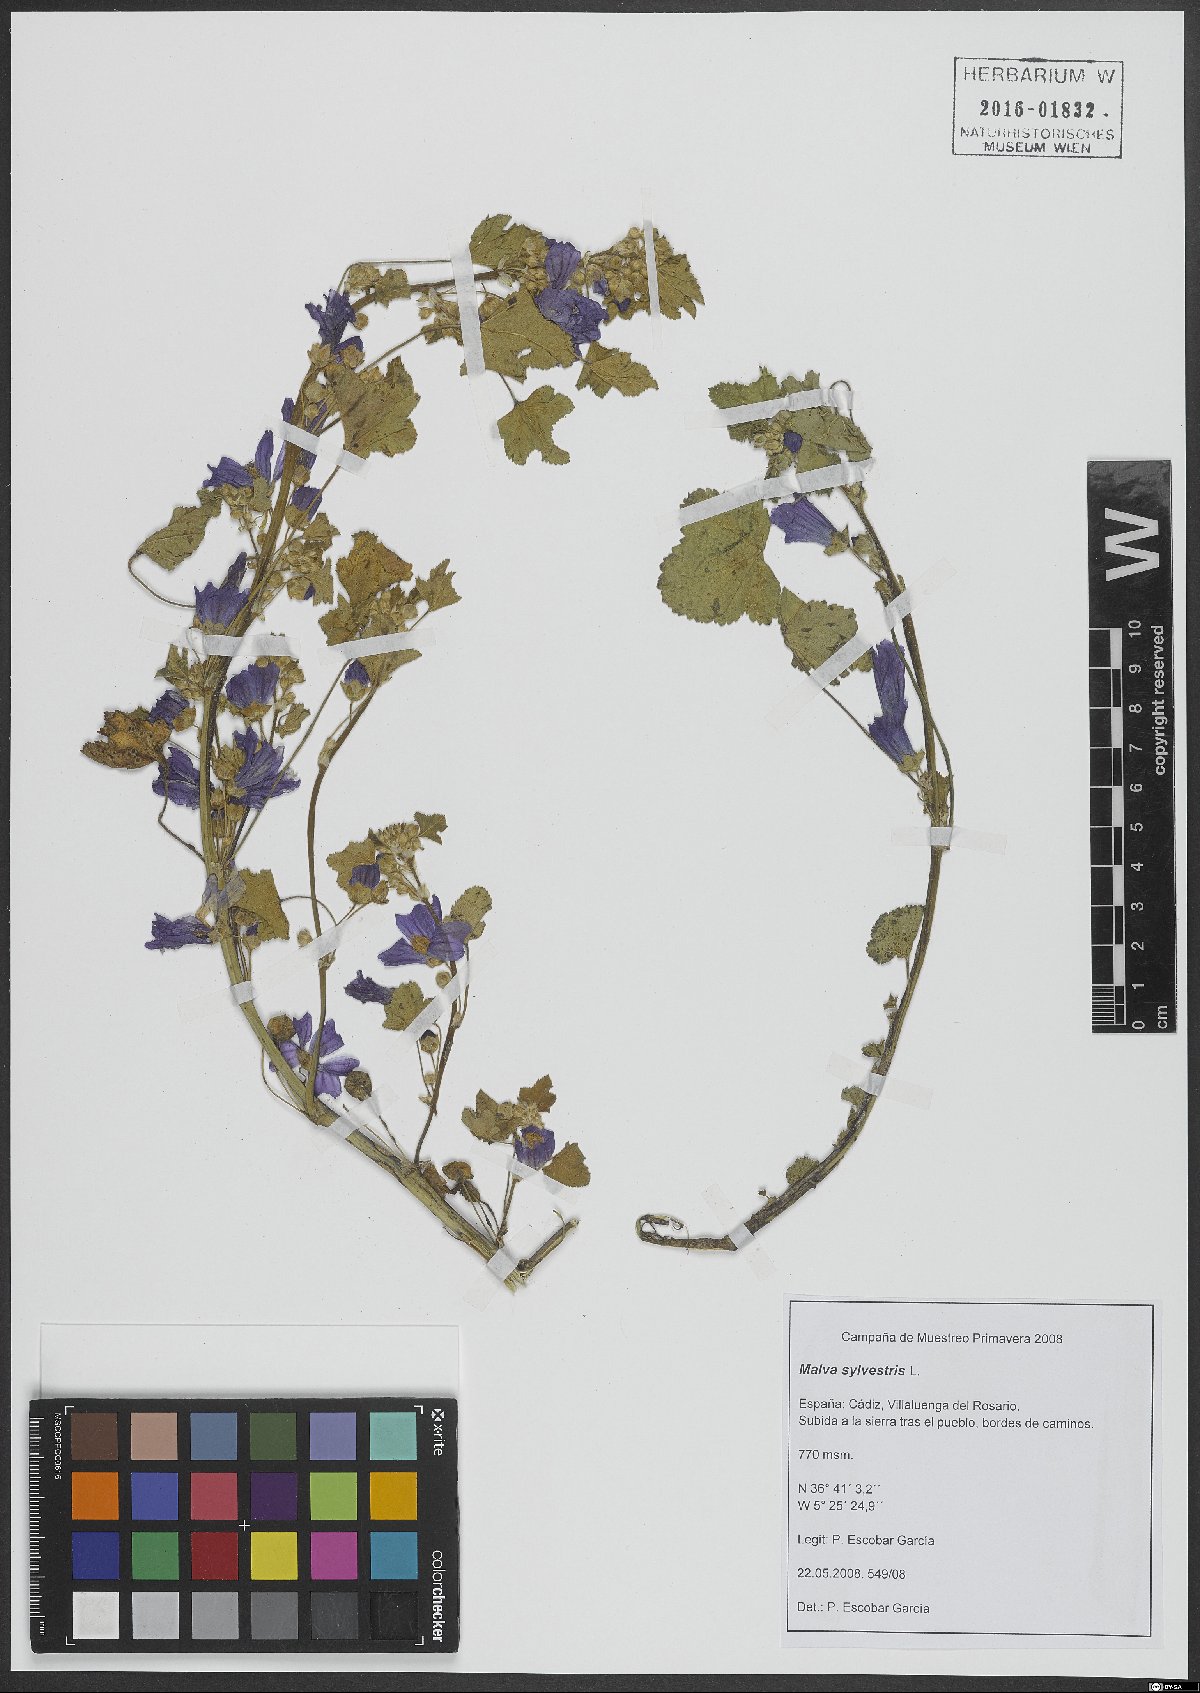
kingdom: Plantae
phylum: Tracheophyta
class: Magnoliopsida
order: Malvales
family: Malvaceae
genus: Malva
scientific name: Malva sylvestris
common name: Common mallow
